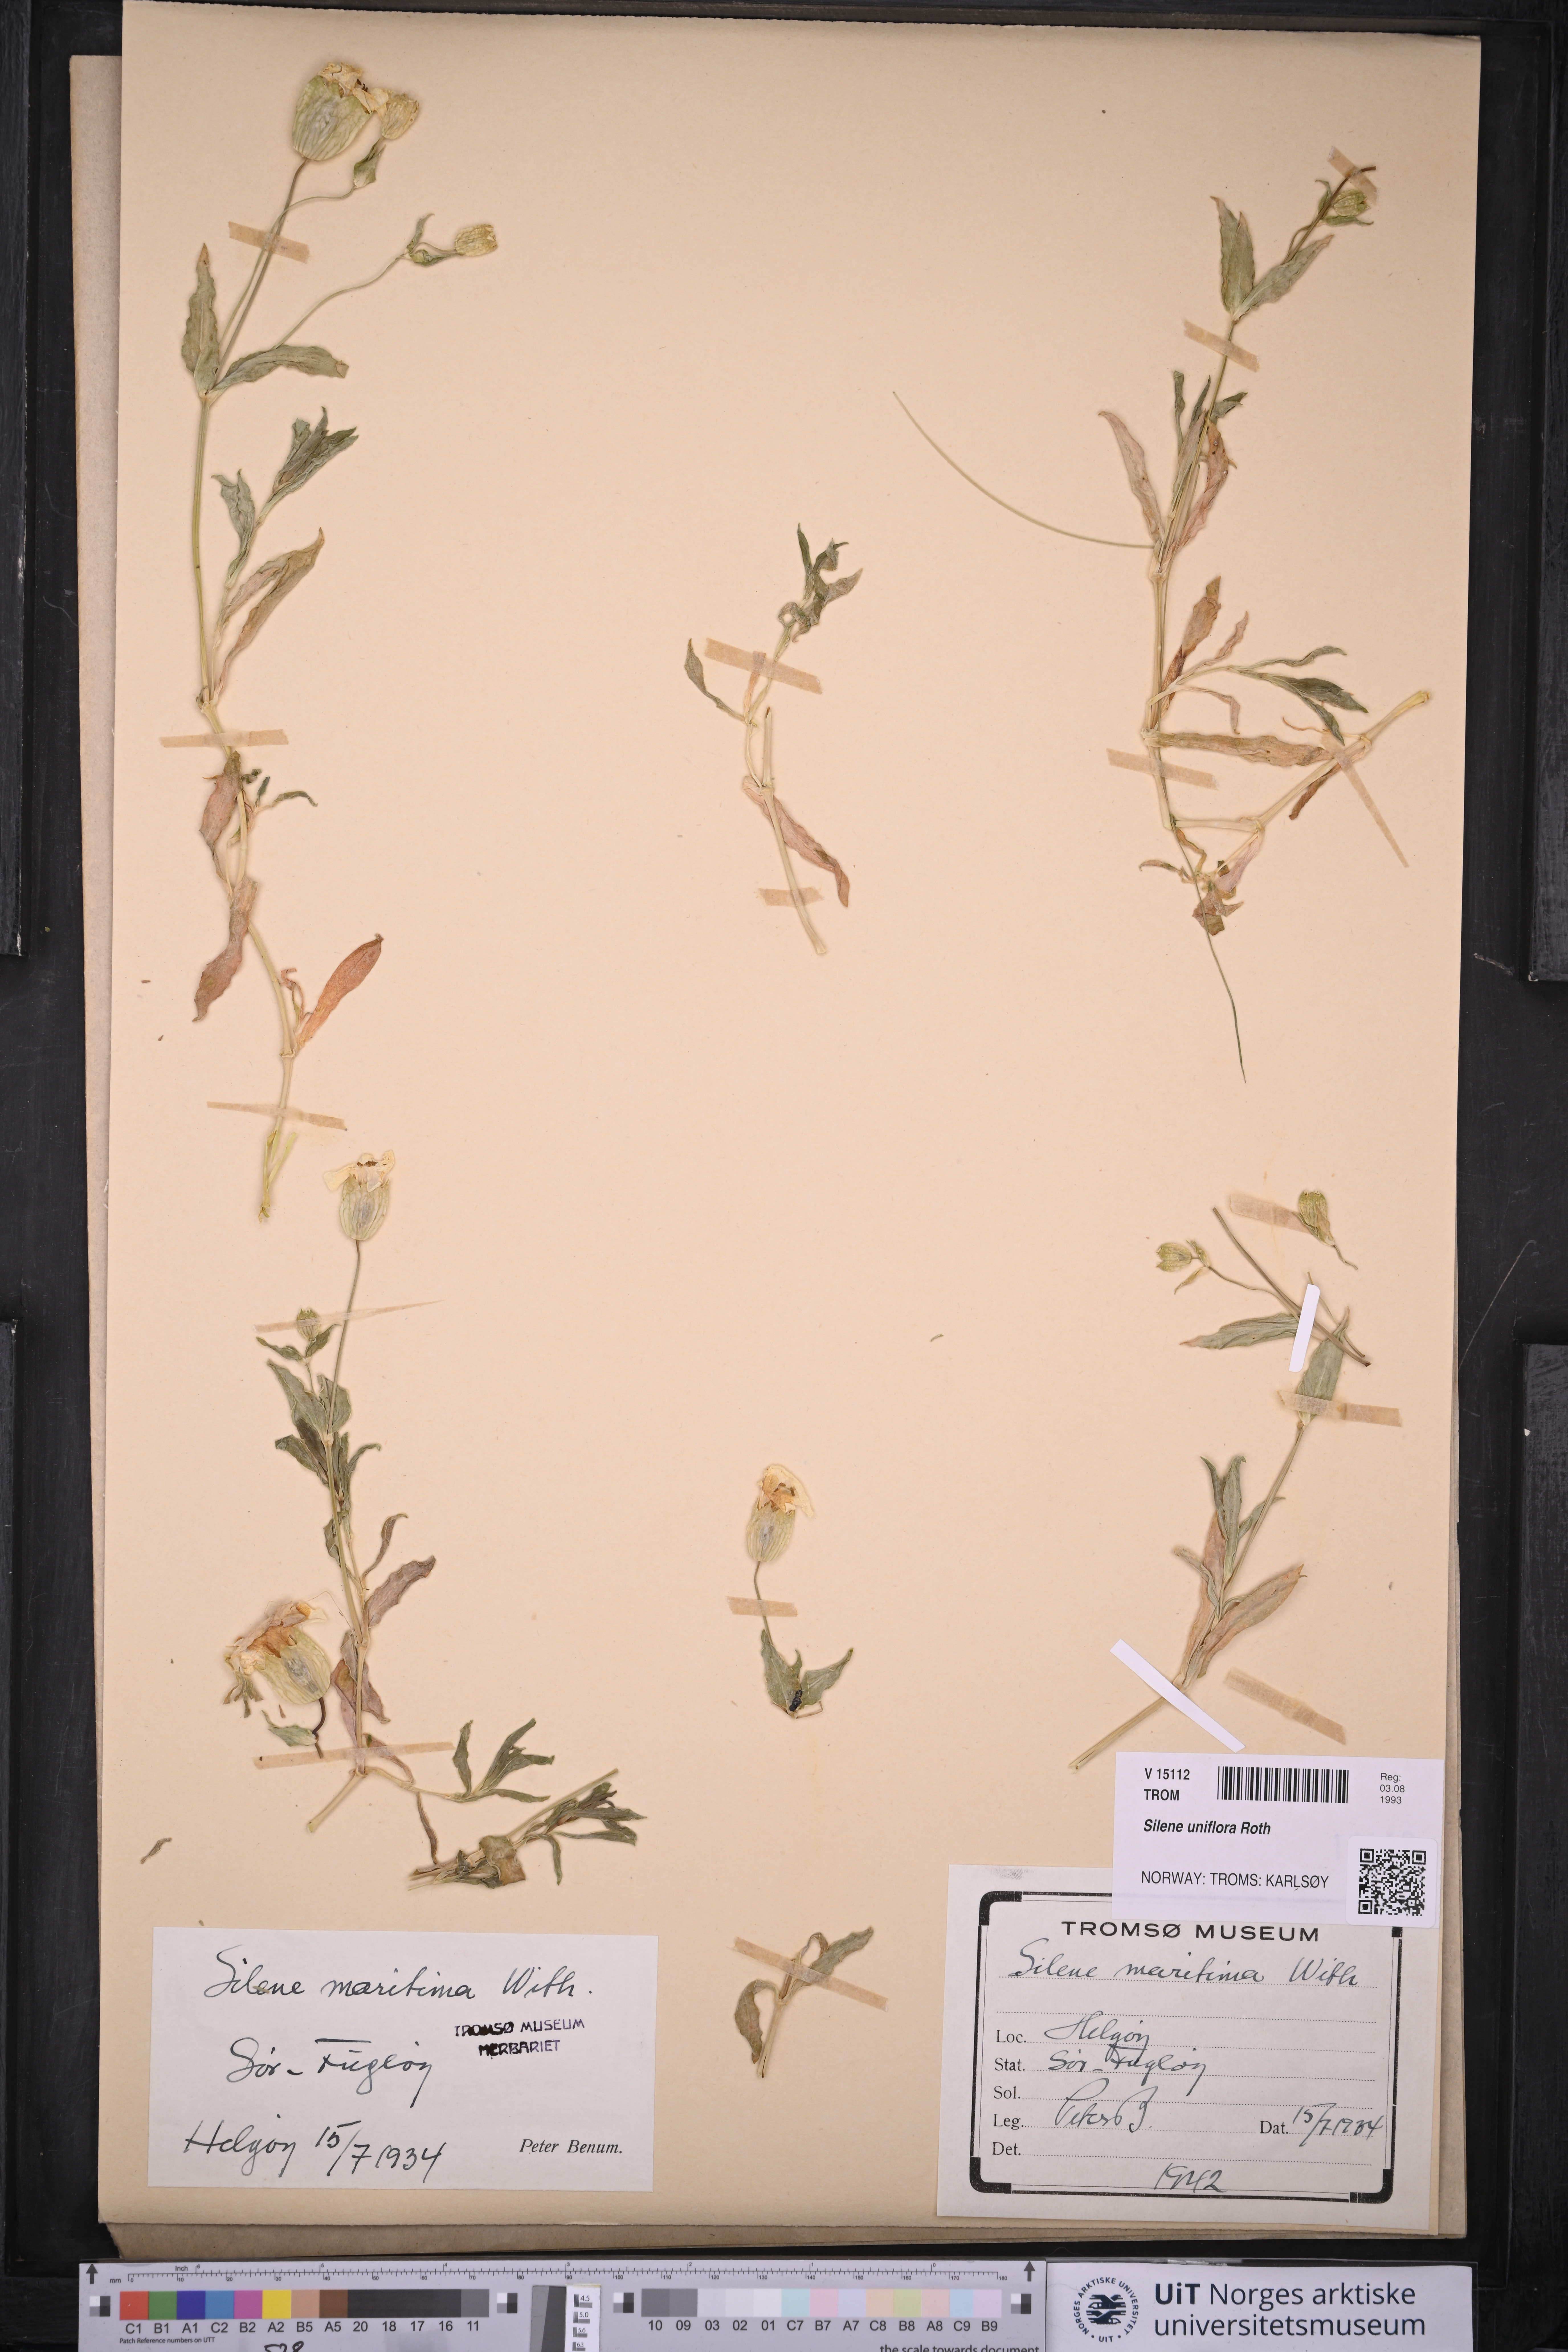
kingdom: Plantae
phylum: Tracheophyta
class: Magnoliopsida
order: Caryophyllales
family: Caryophyllaceae
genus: Silene
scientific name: Silene uniflora
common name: Sea campion
